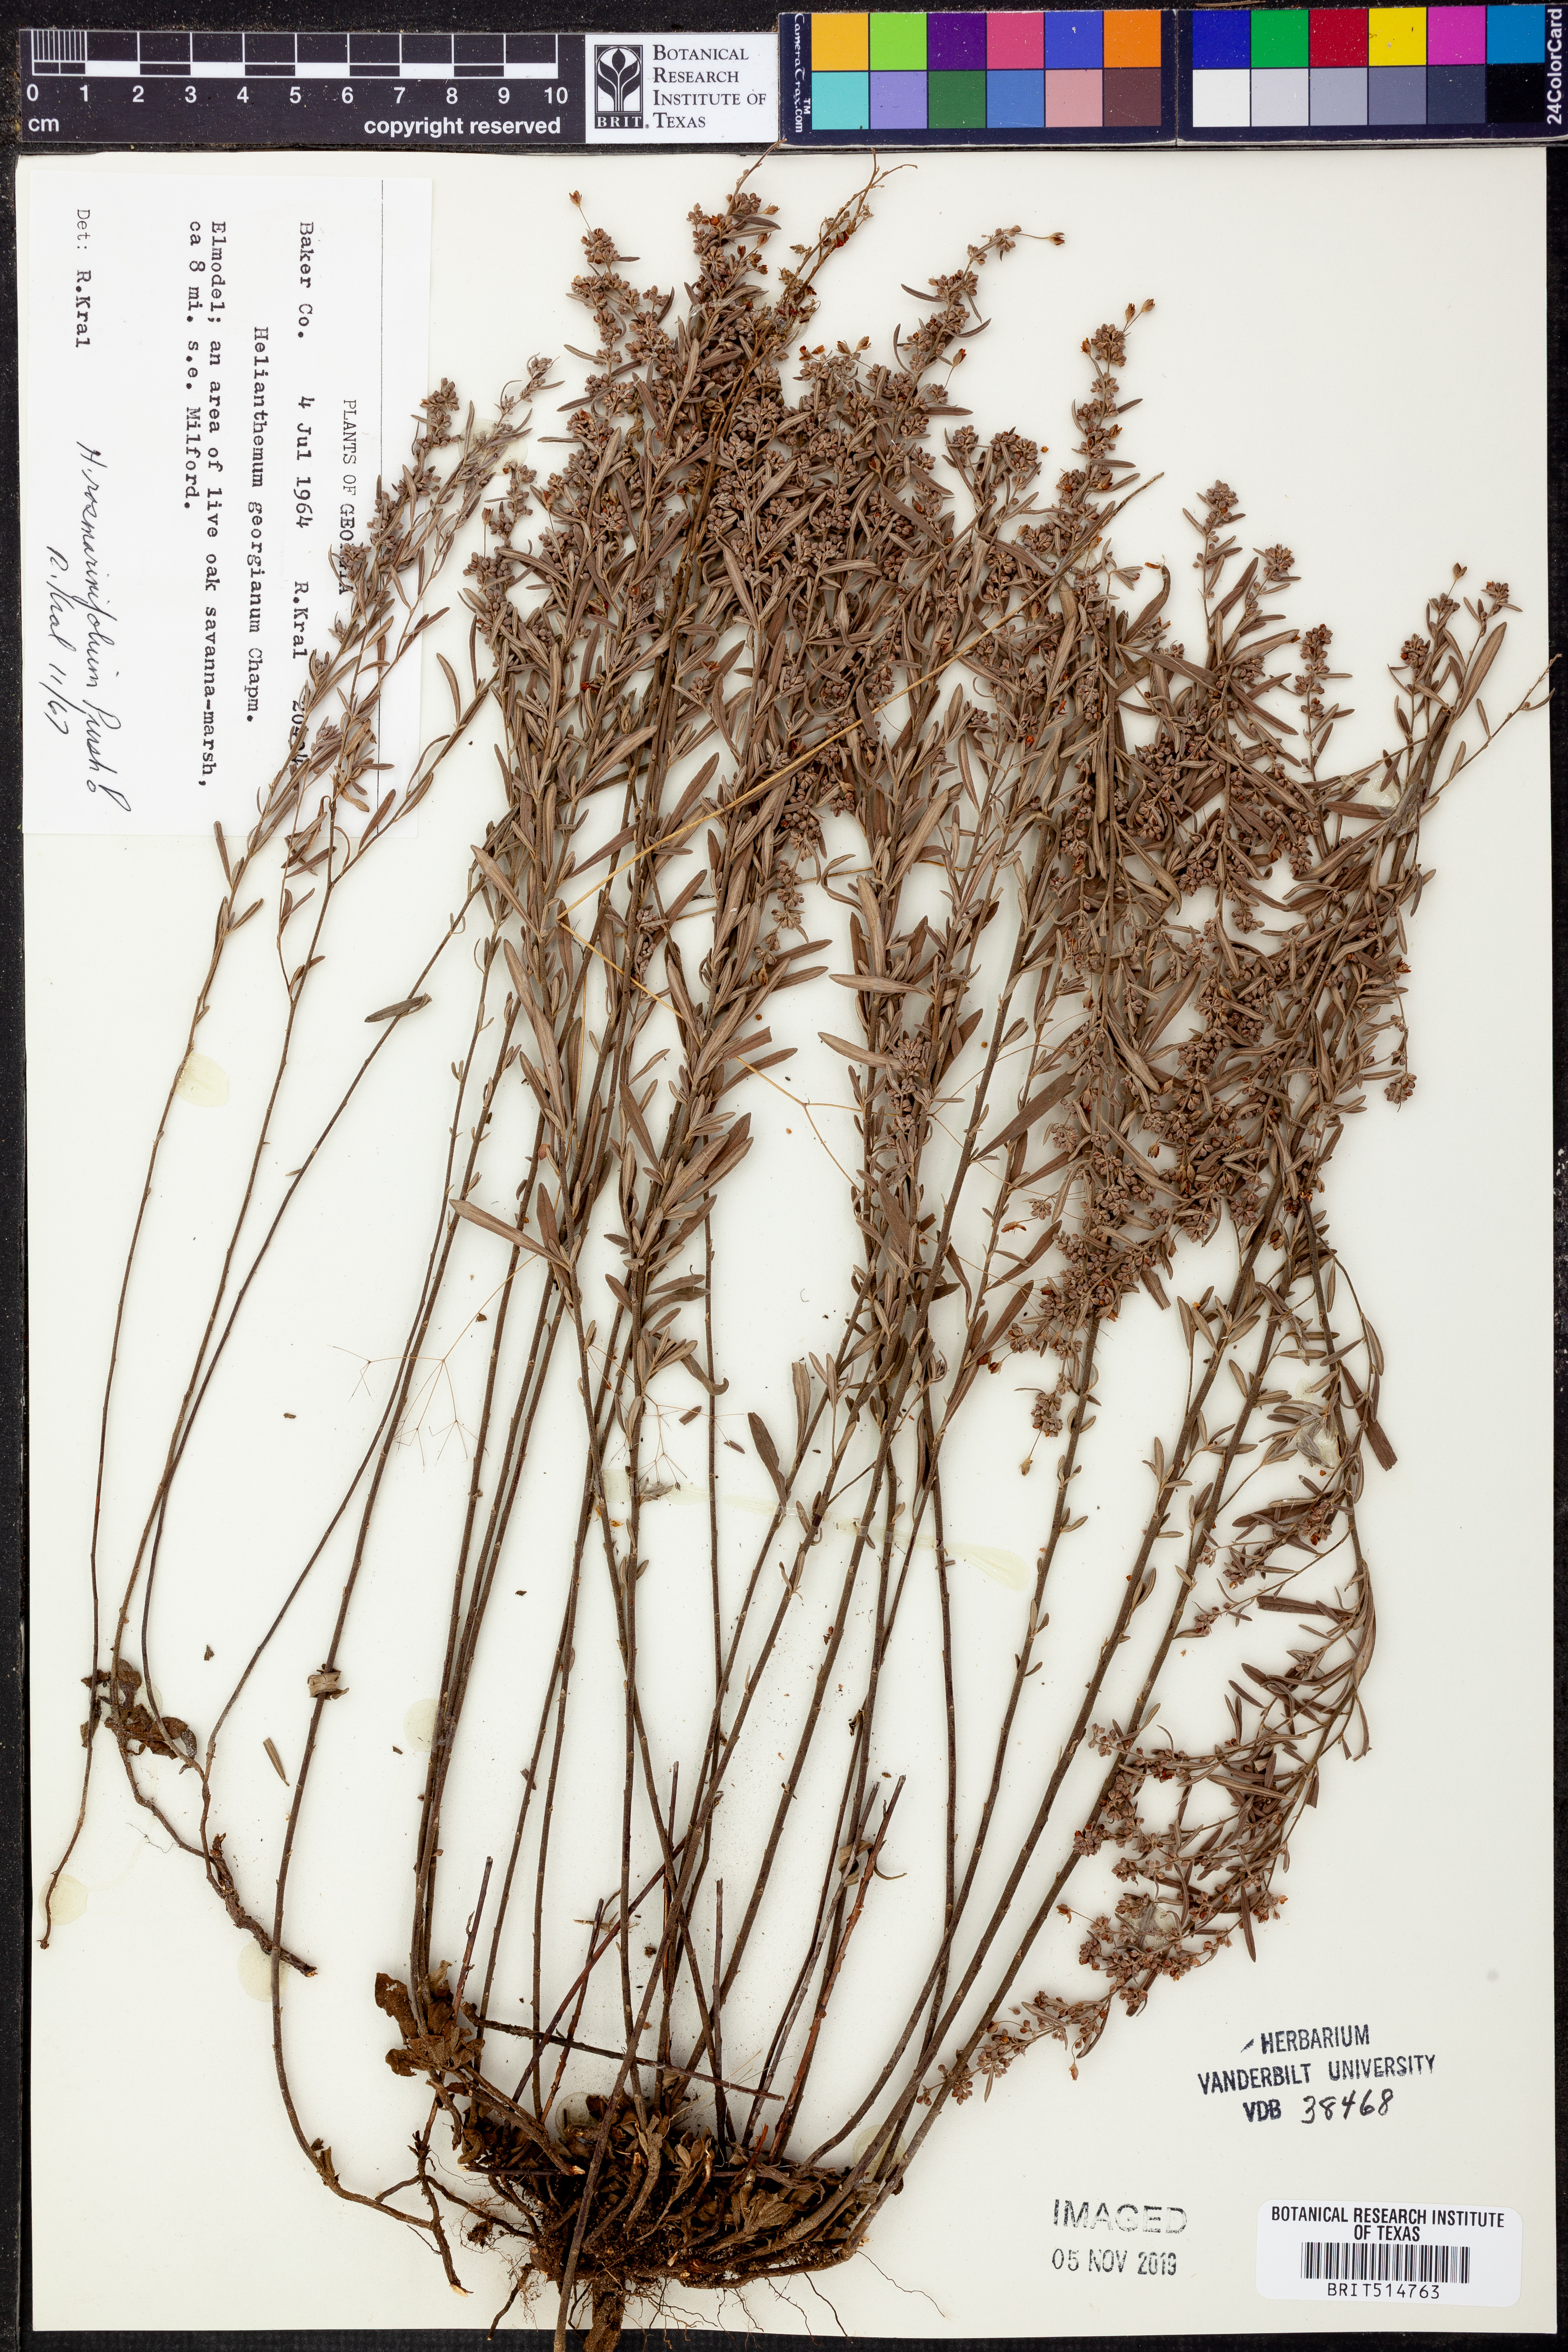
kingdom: Plantae
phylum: Tracheophyta
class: Magnoliopsida
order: Malvales
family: Cistaceae
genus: Crocanthemum
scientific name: Crocanthemum georgianum
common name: Georgia frostweed
